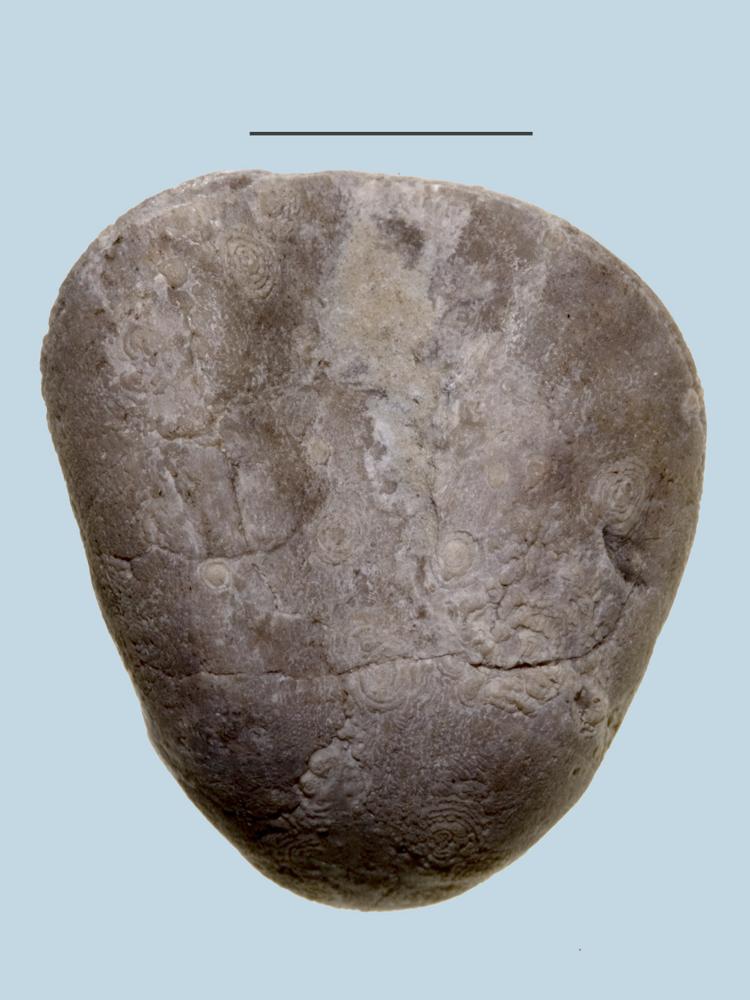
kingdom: Animalia
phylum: Brachiopoda
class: Rhynchonellata
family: Porambonitidae
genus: Porambonites
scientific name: Porambonites baueri
